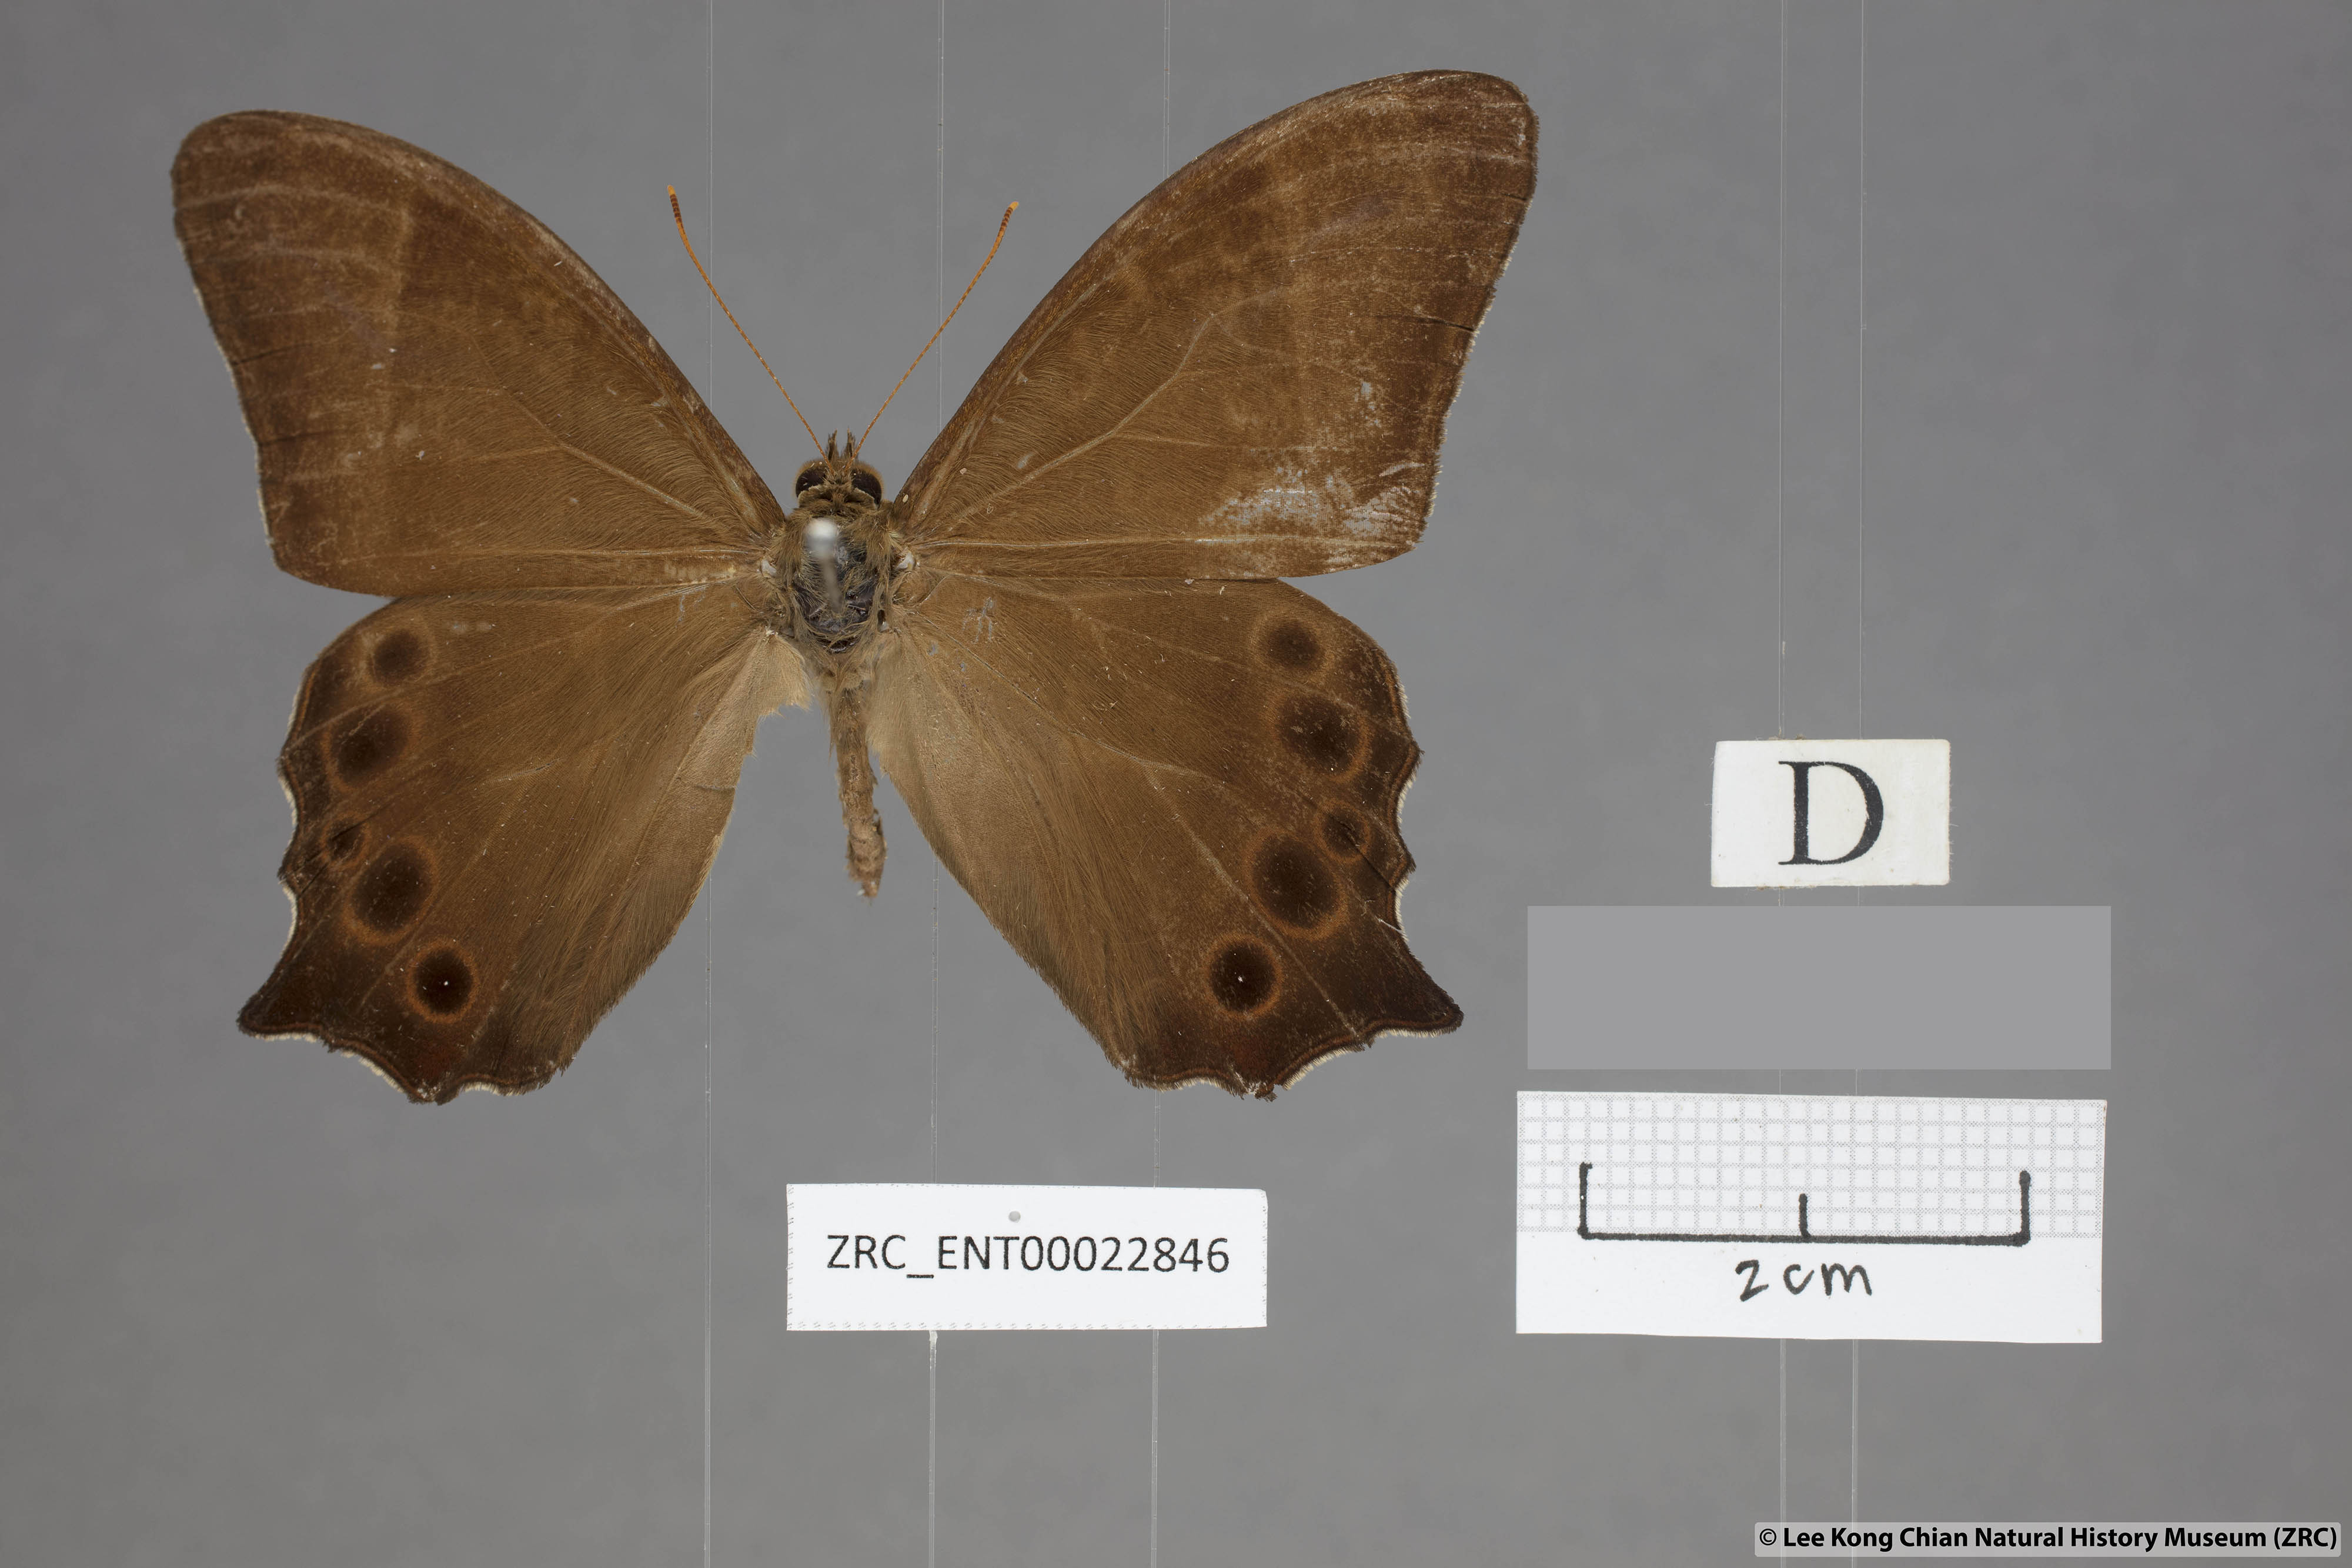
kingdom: Animalia
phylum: Arthropoda
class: Insecta
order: Lepidoptera
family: Nymphalidae
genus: Lethe
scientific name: Lethe vindhya
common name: Black forester
